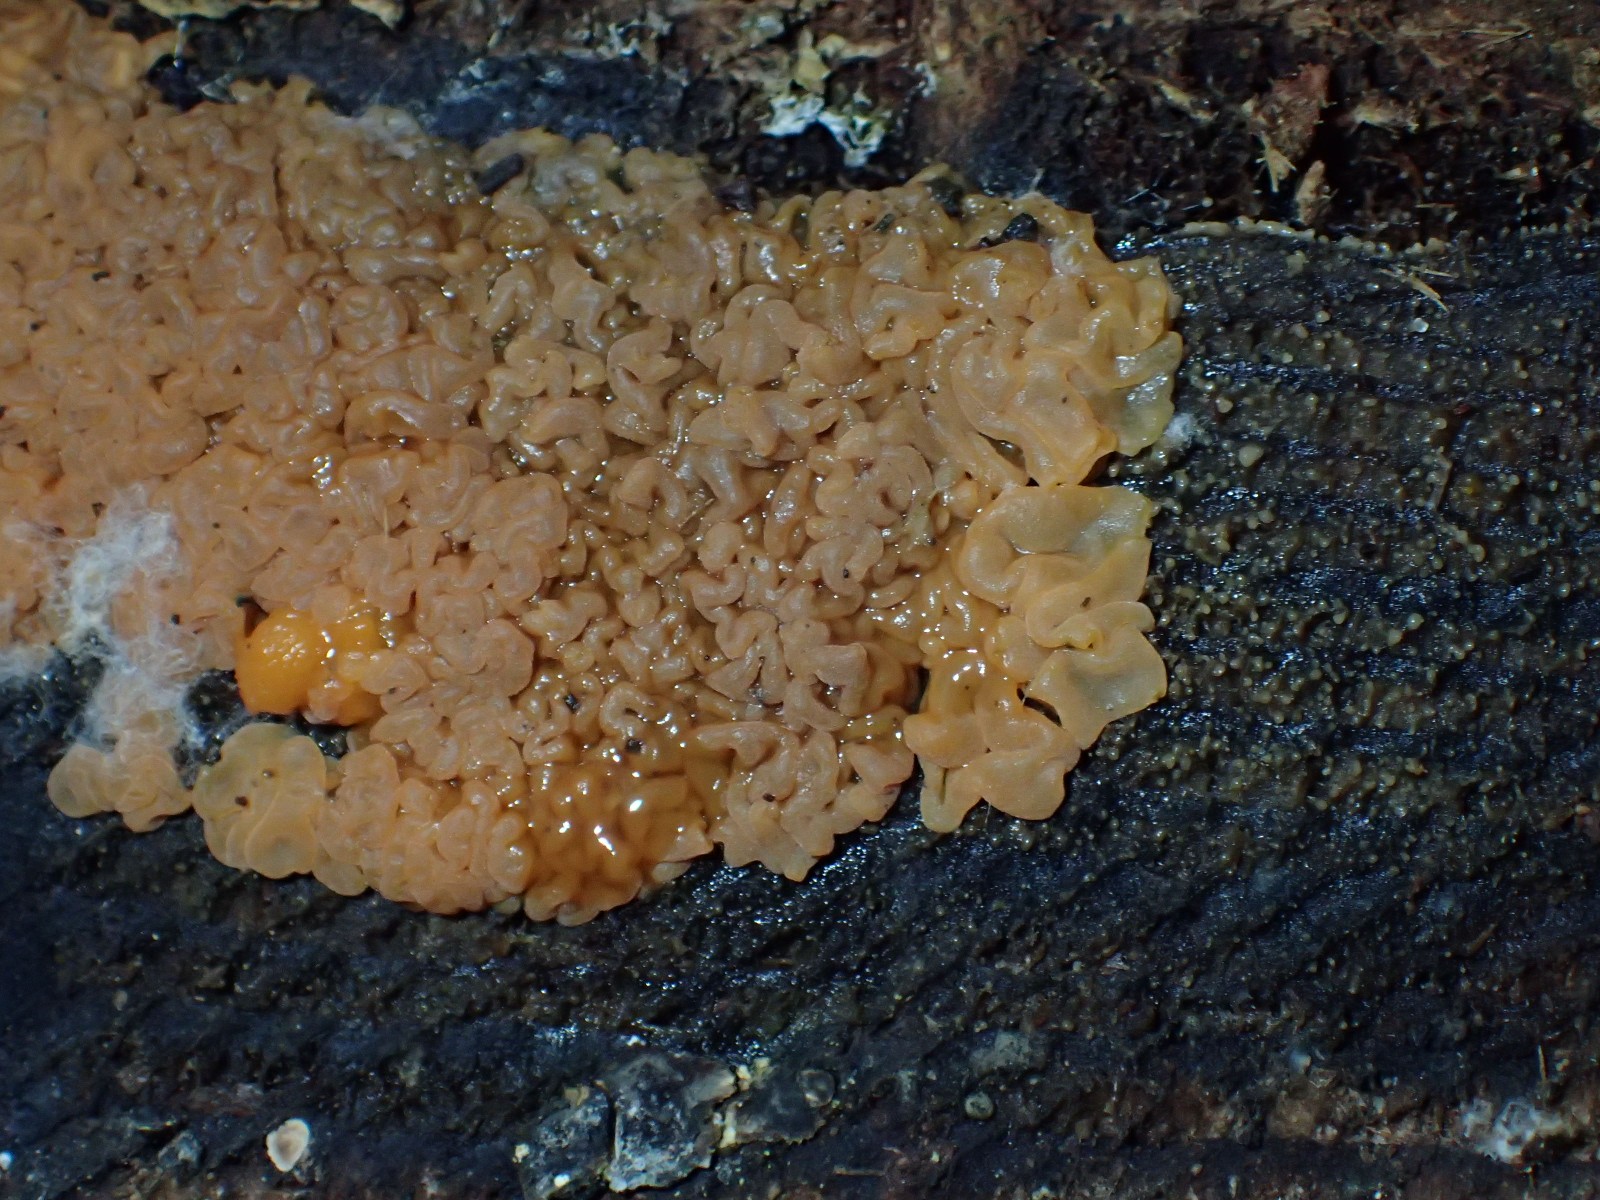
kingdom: Fungi
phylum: Basidiomycota
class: Dacrymycetes
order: Dacrymycetales
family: Dacrymycetaceae
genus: Dacrymyces
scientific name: Dacrymyces
